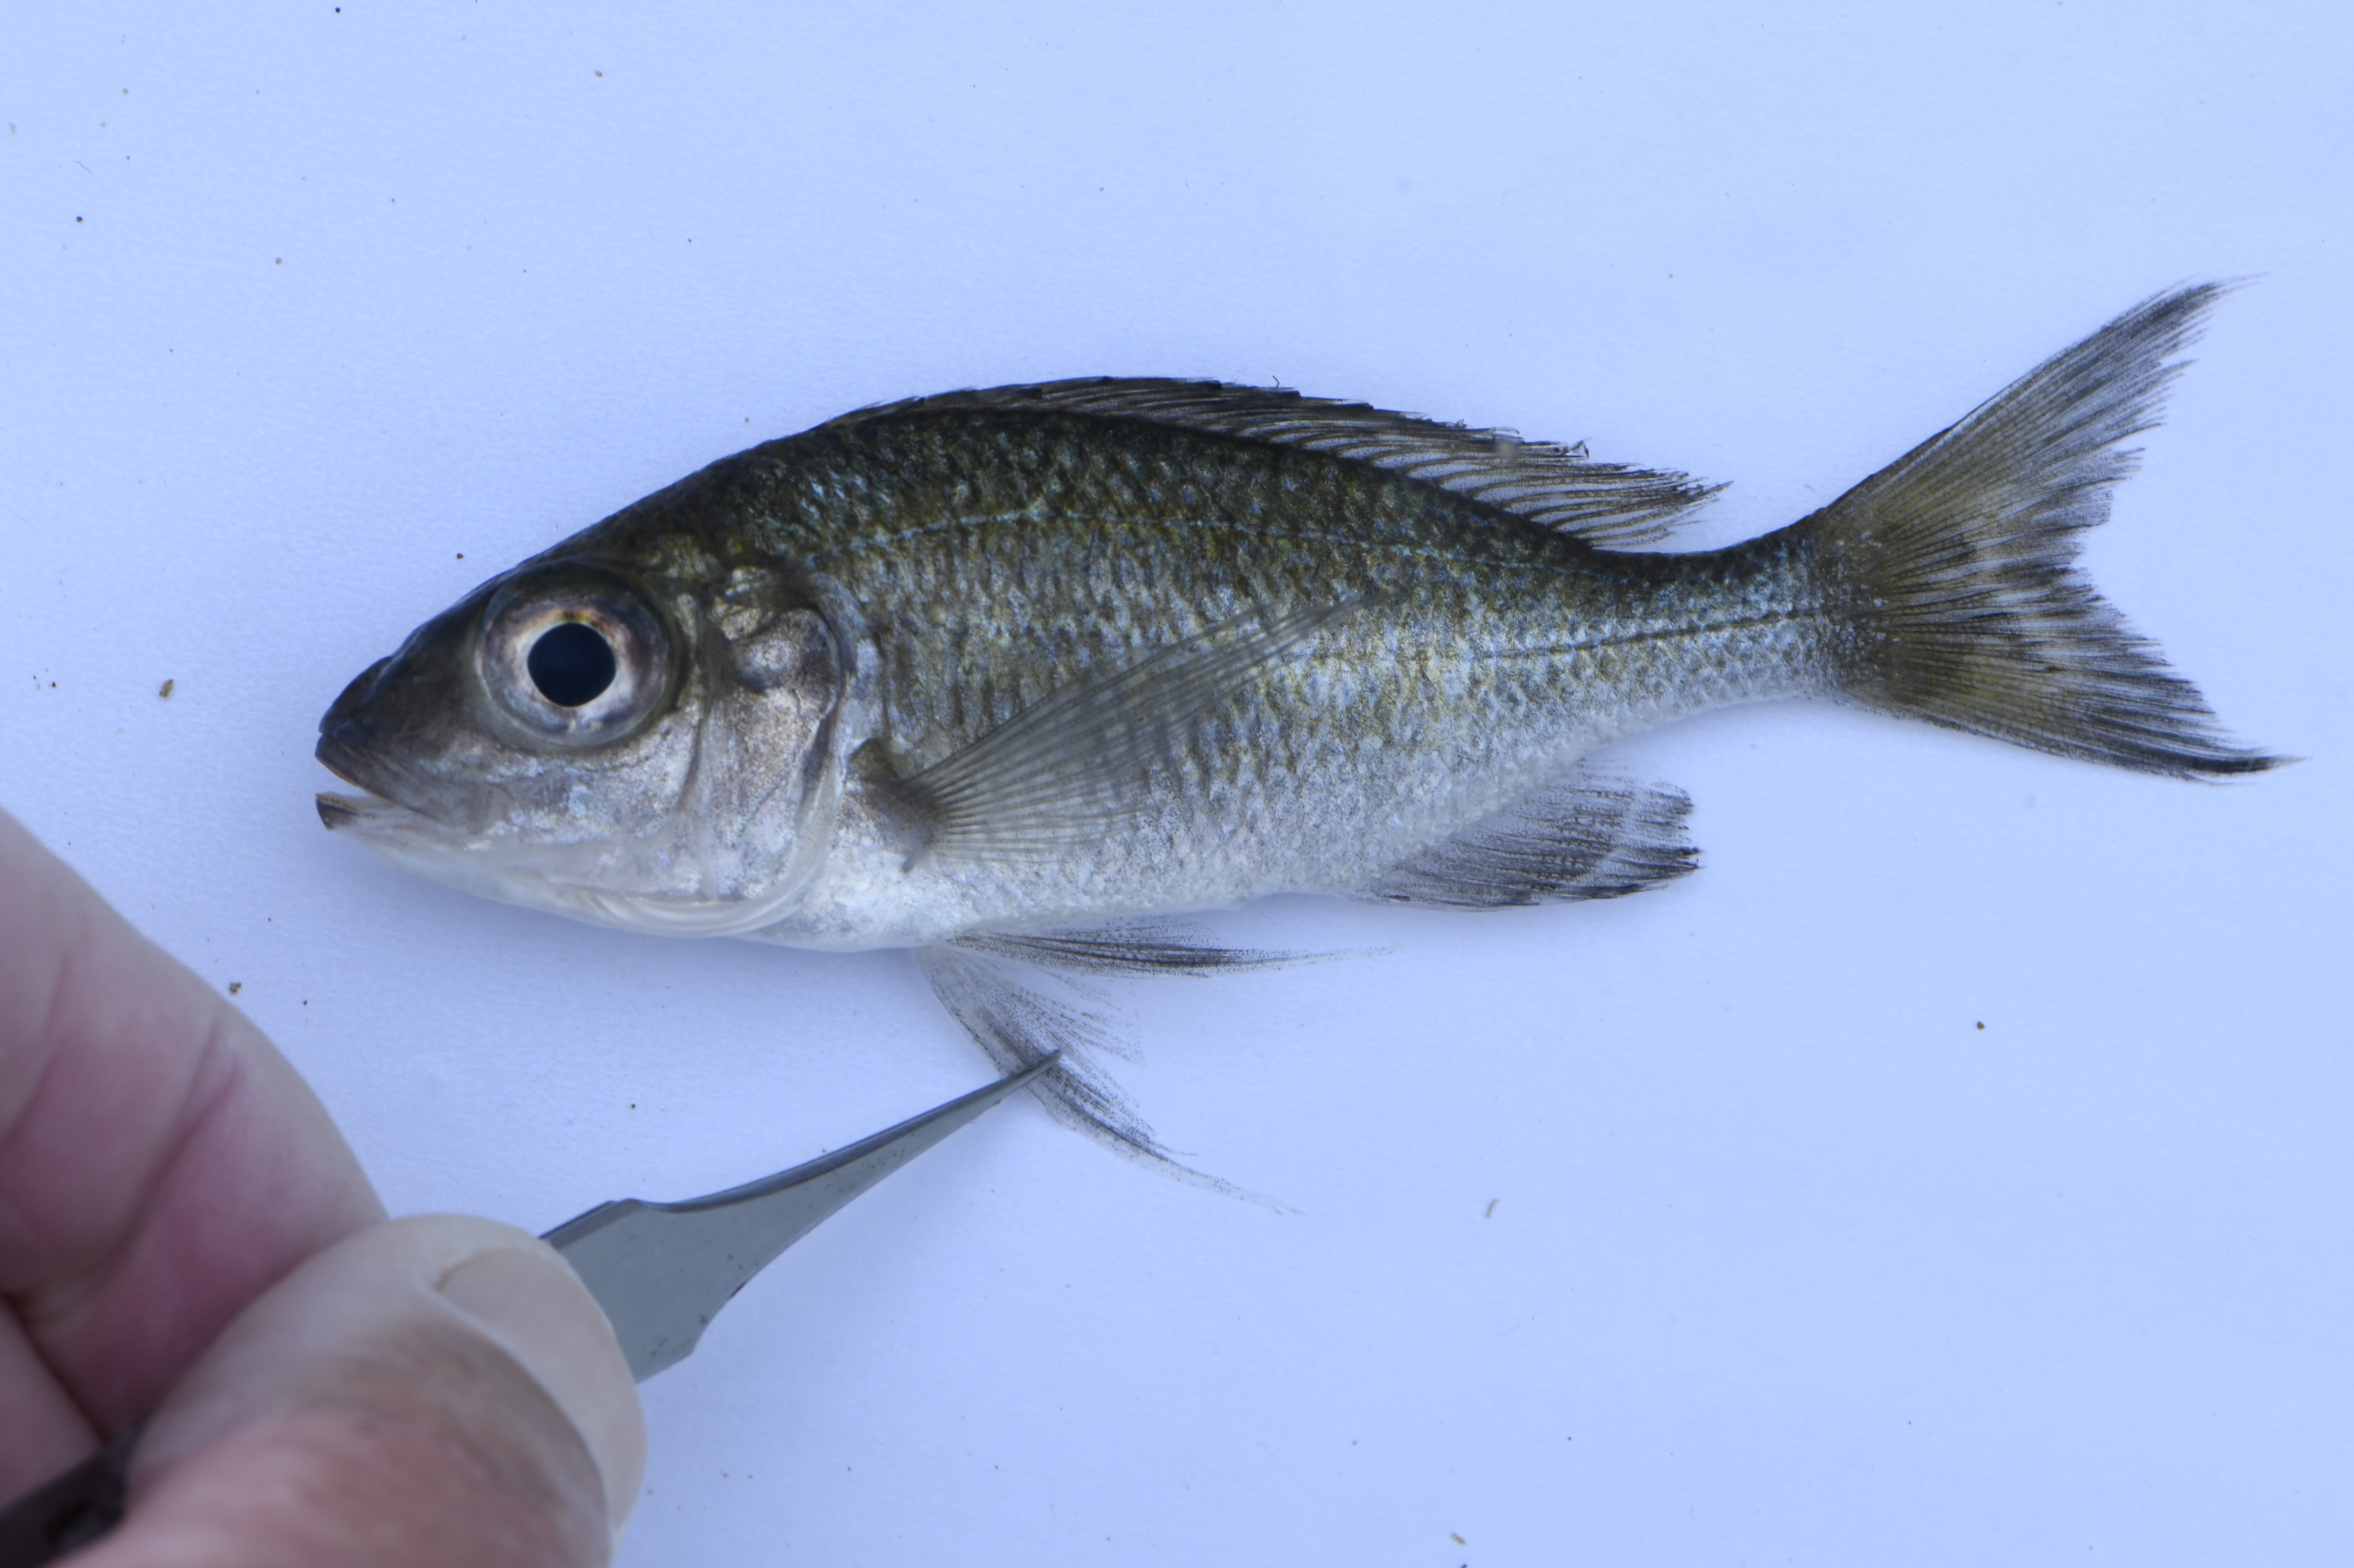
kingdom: Animalia
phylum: Chordata
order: Perciformes
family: Cichlidae
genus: Ophthalmotilapia
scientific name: Ophthalmotilapia ventralis
